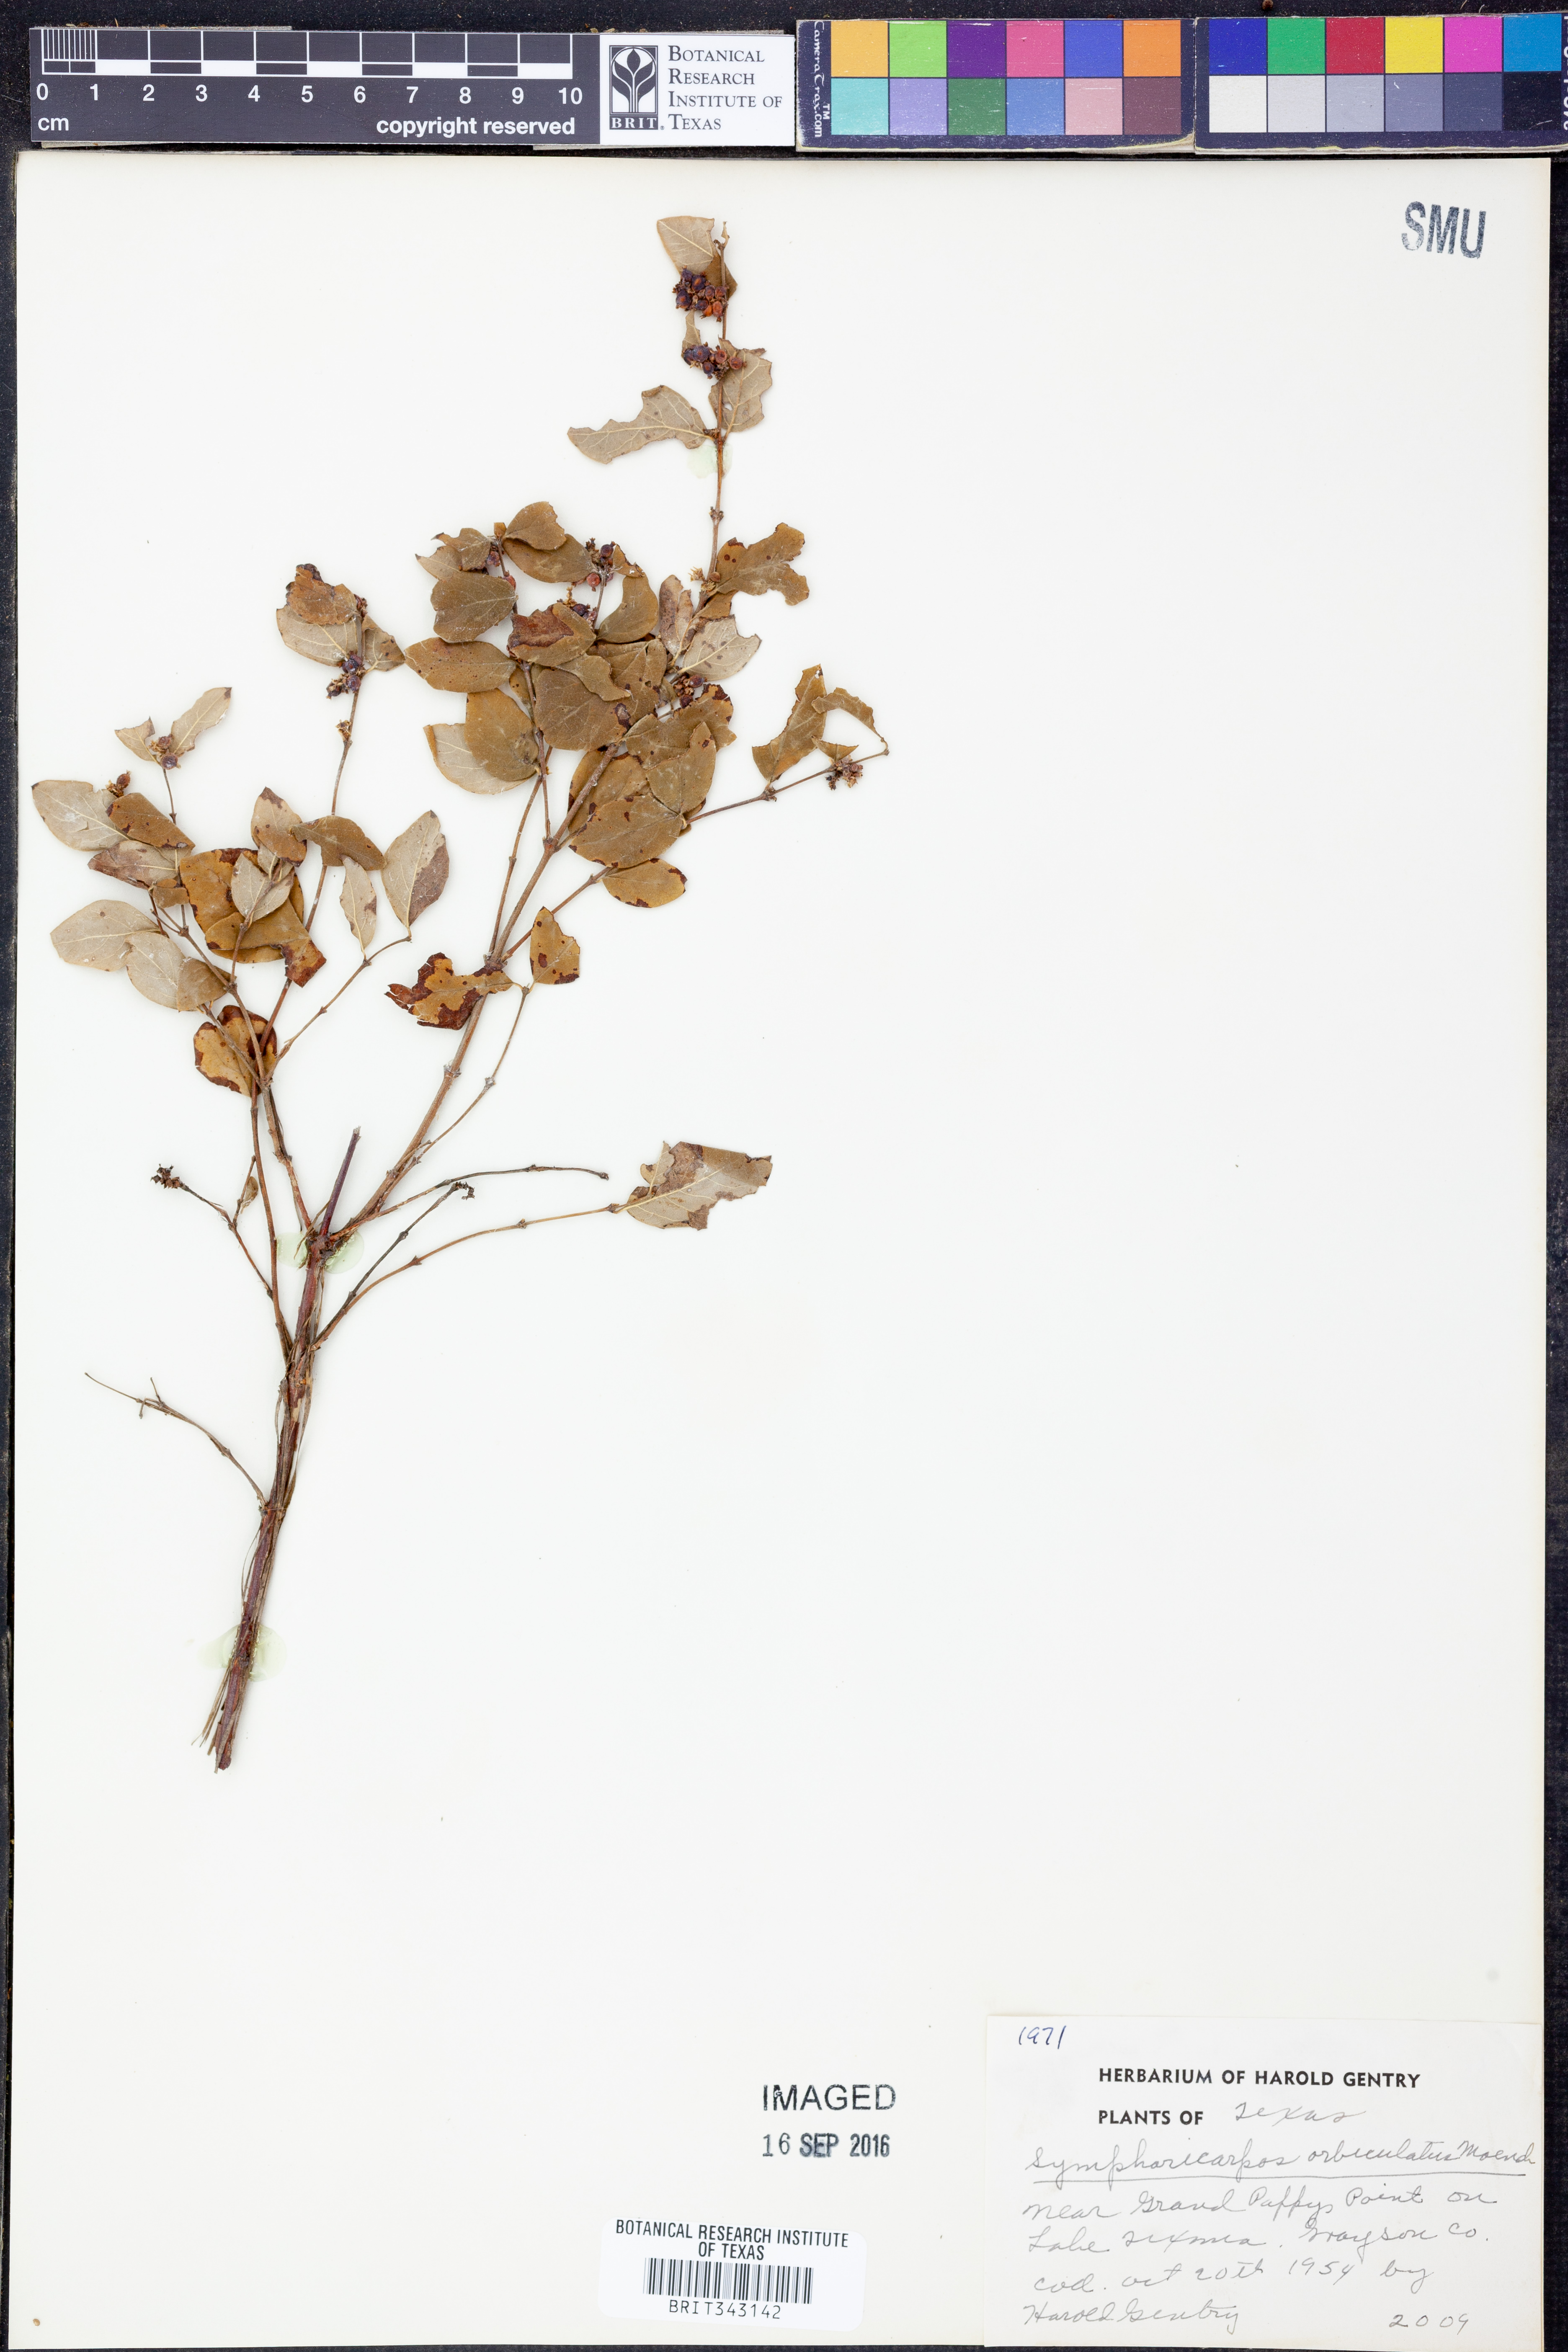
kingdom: Plantae
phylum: Tracheophyta
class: Magnoliopsida
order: Dipsacales
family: Caprifoliaceae
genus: Symphoricarpos
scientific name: Symphoricarpos orbiculatus
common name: Coralberry
